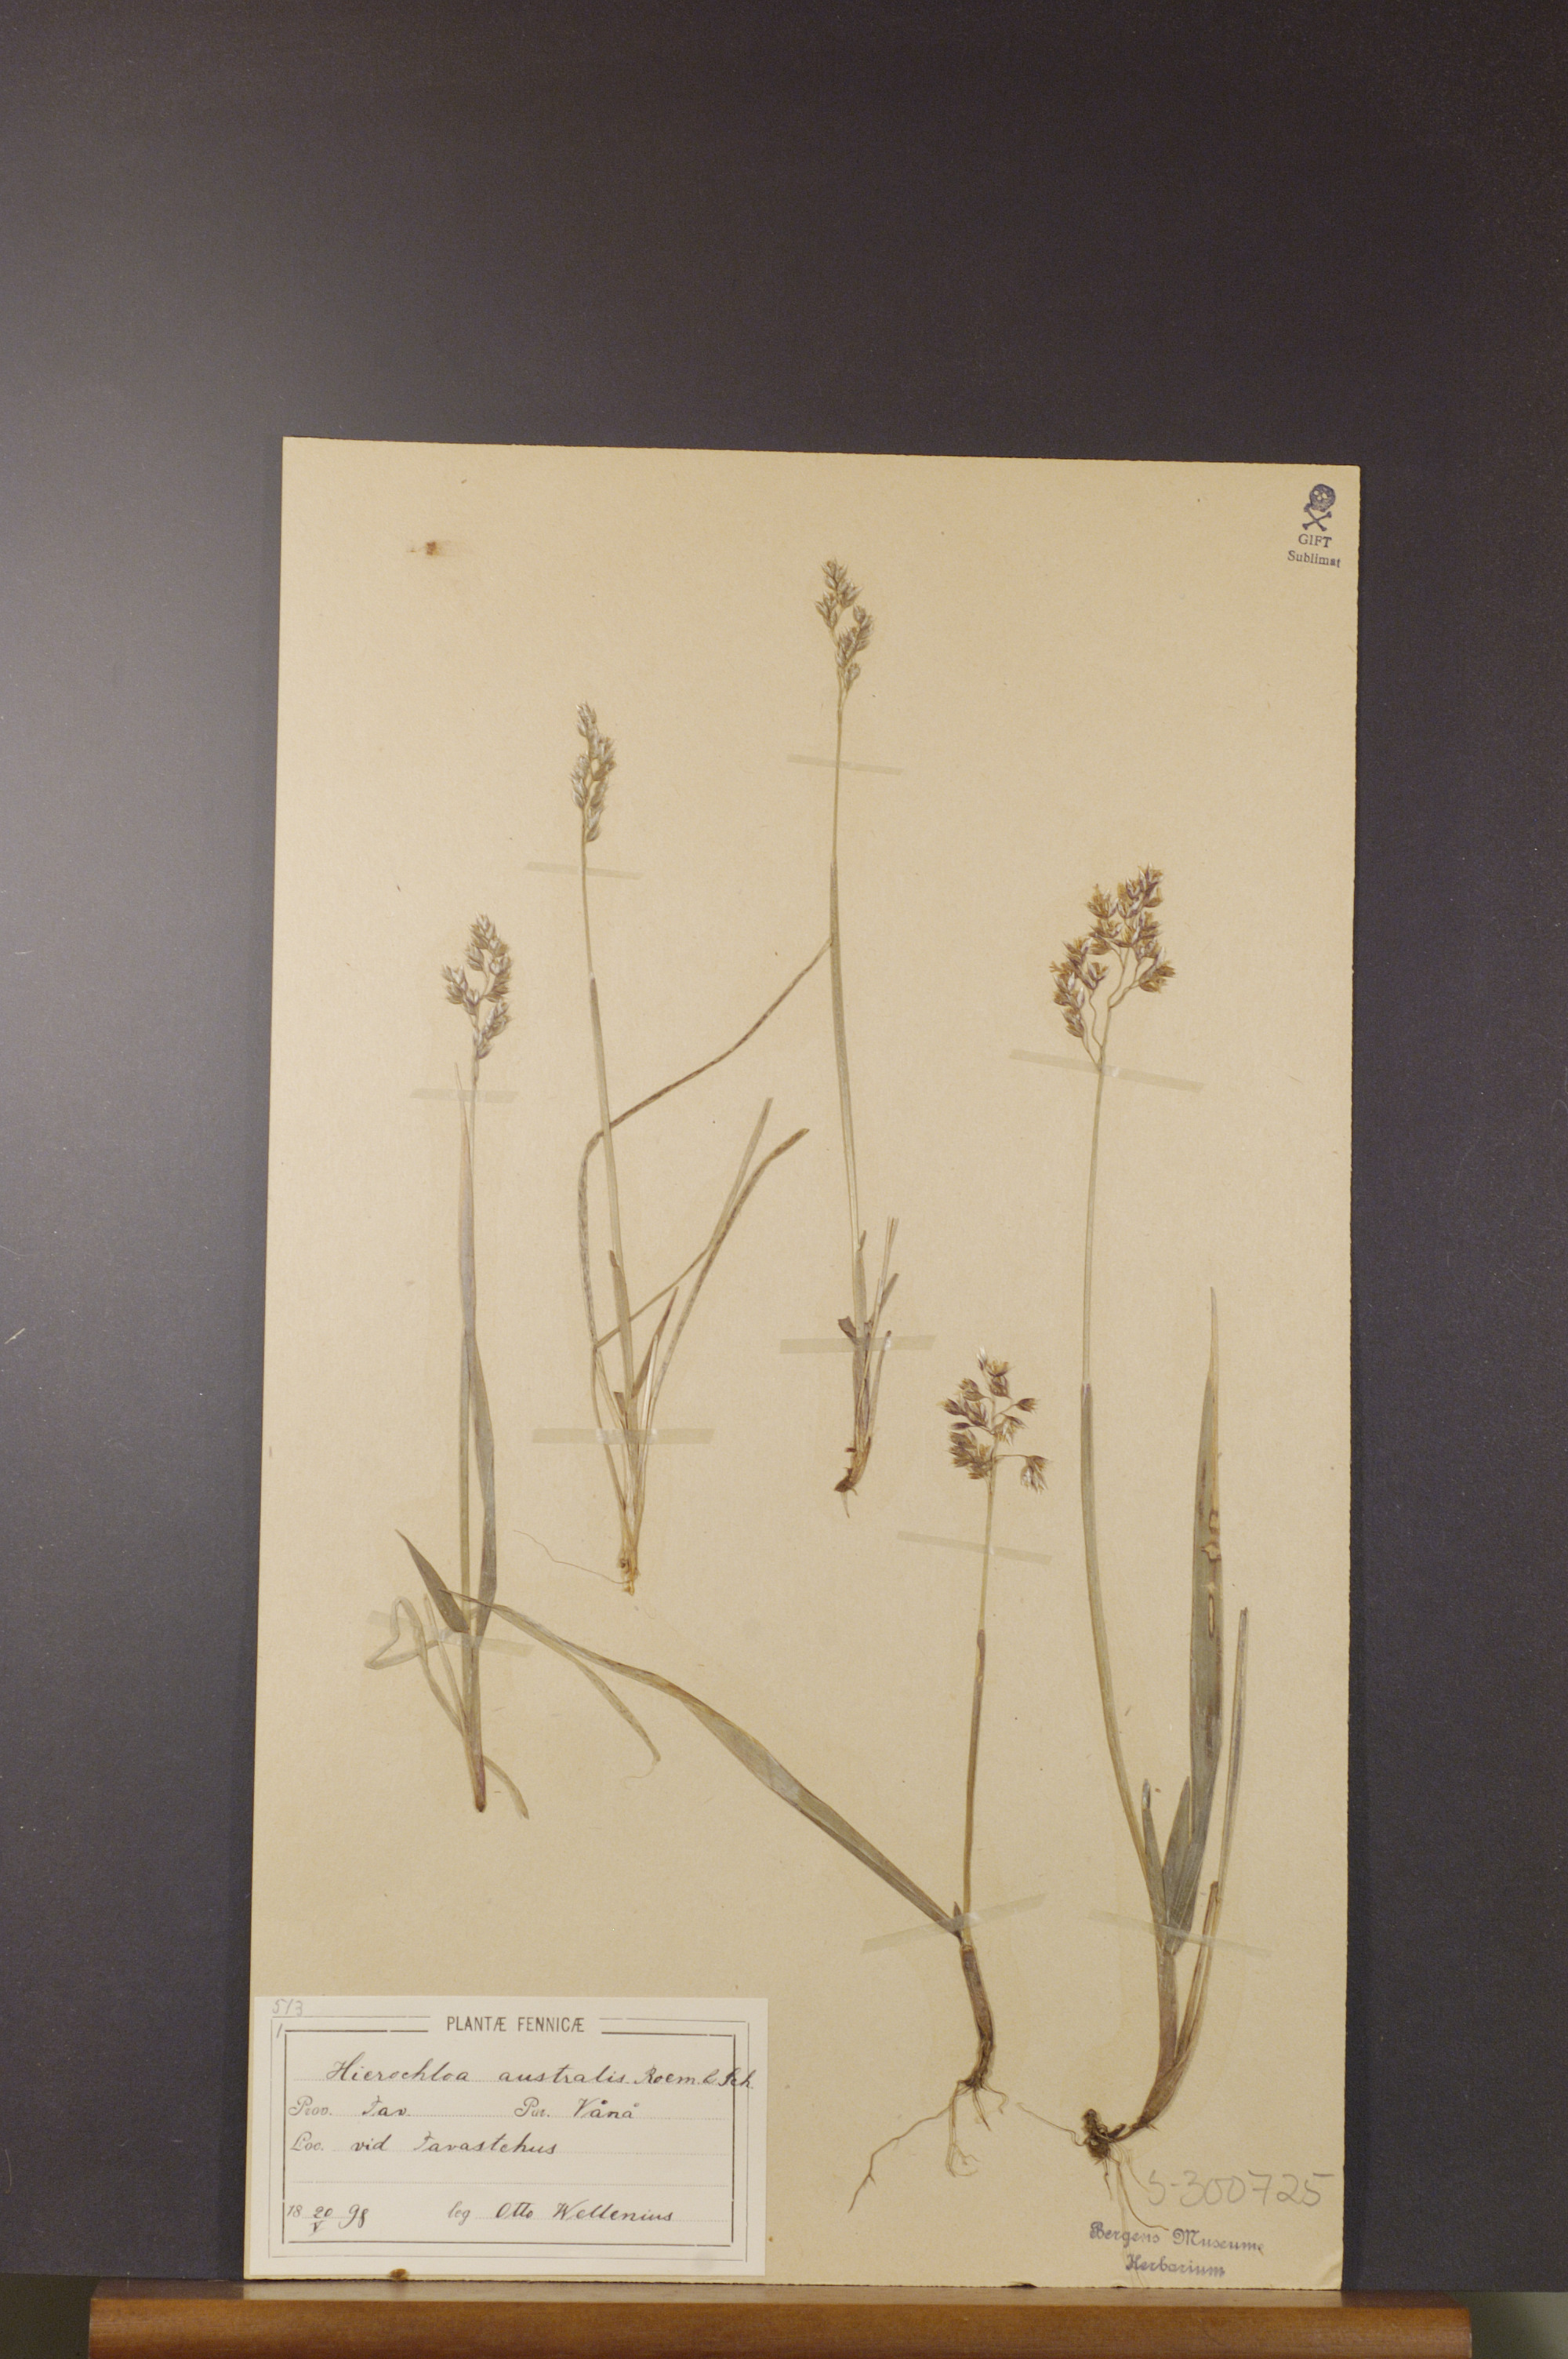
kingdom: Plantae
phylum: Tracheophyta
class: Liliopsida
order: Poales
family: Poaceae
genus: Anthoxanthum
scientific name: Anthoxanthum australe
